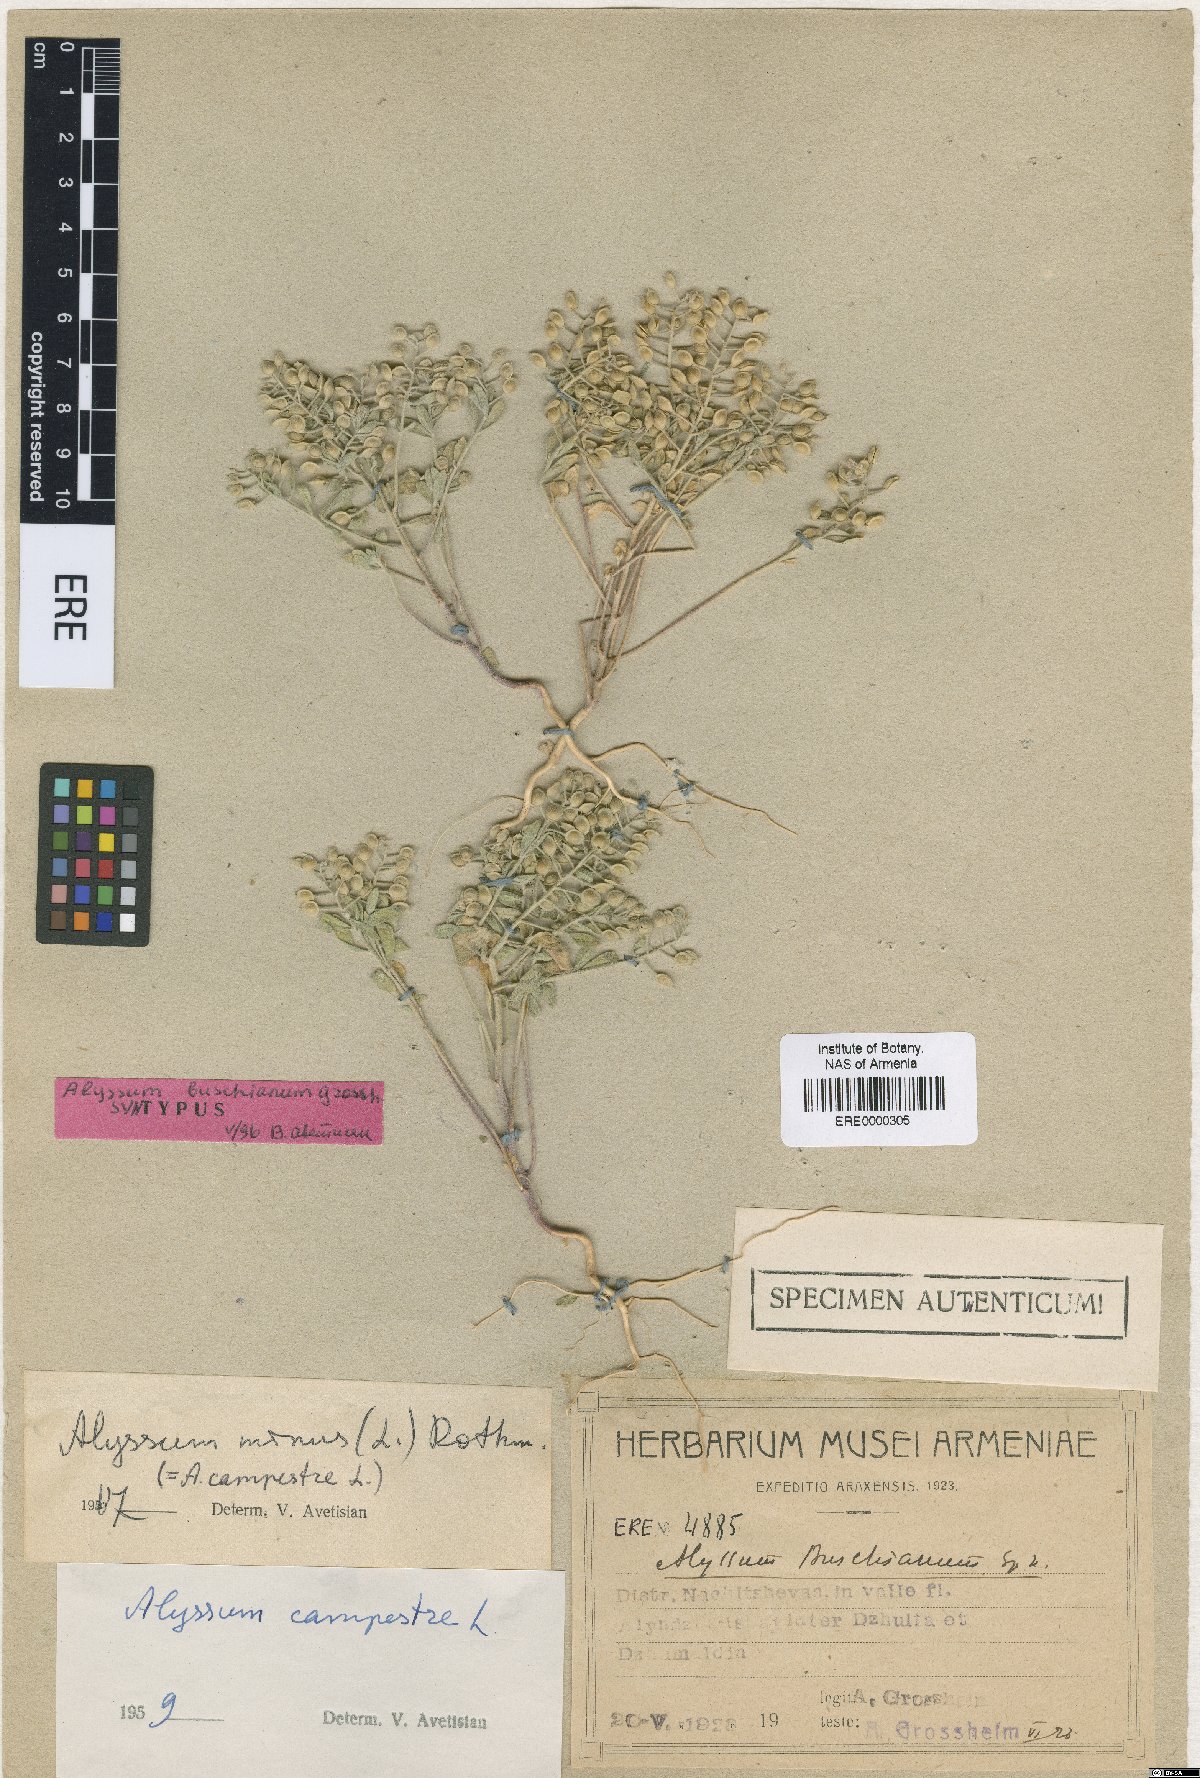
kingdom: Plantae
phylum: Tracheophyta
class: Magnoliopsida
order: Brassicales
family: Brassicaceae
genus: Alyssum
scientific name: Alyssum stapfii
